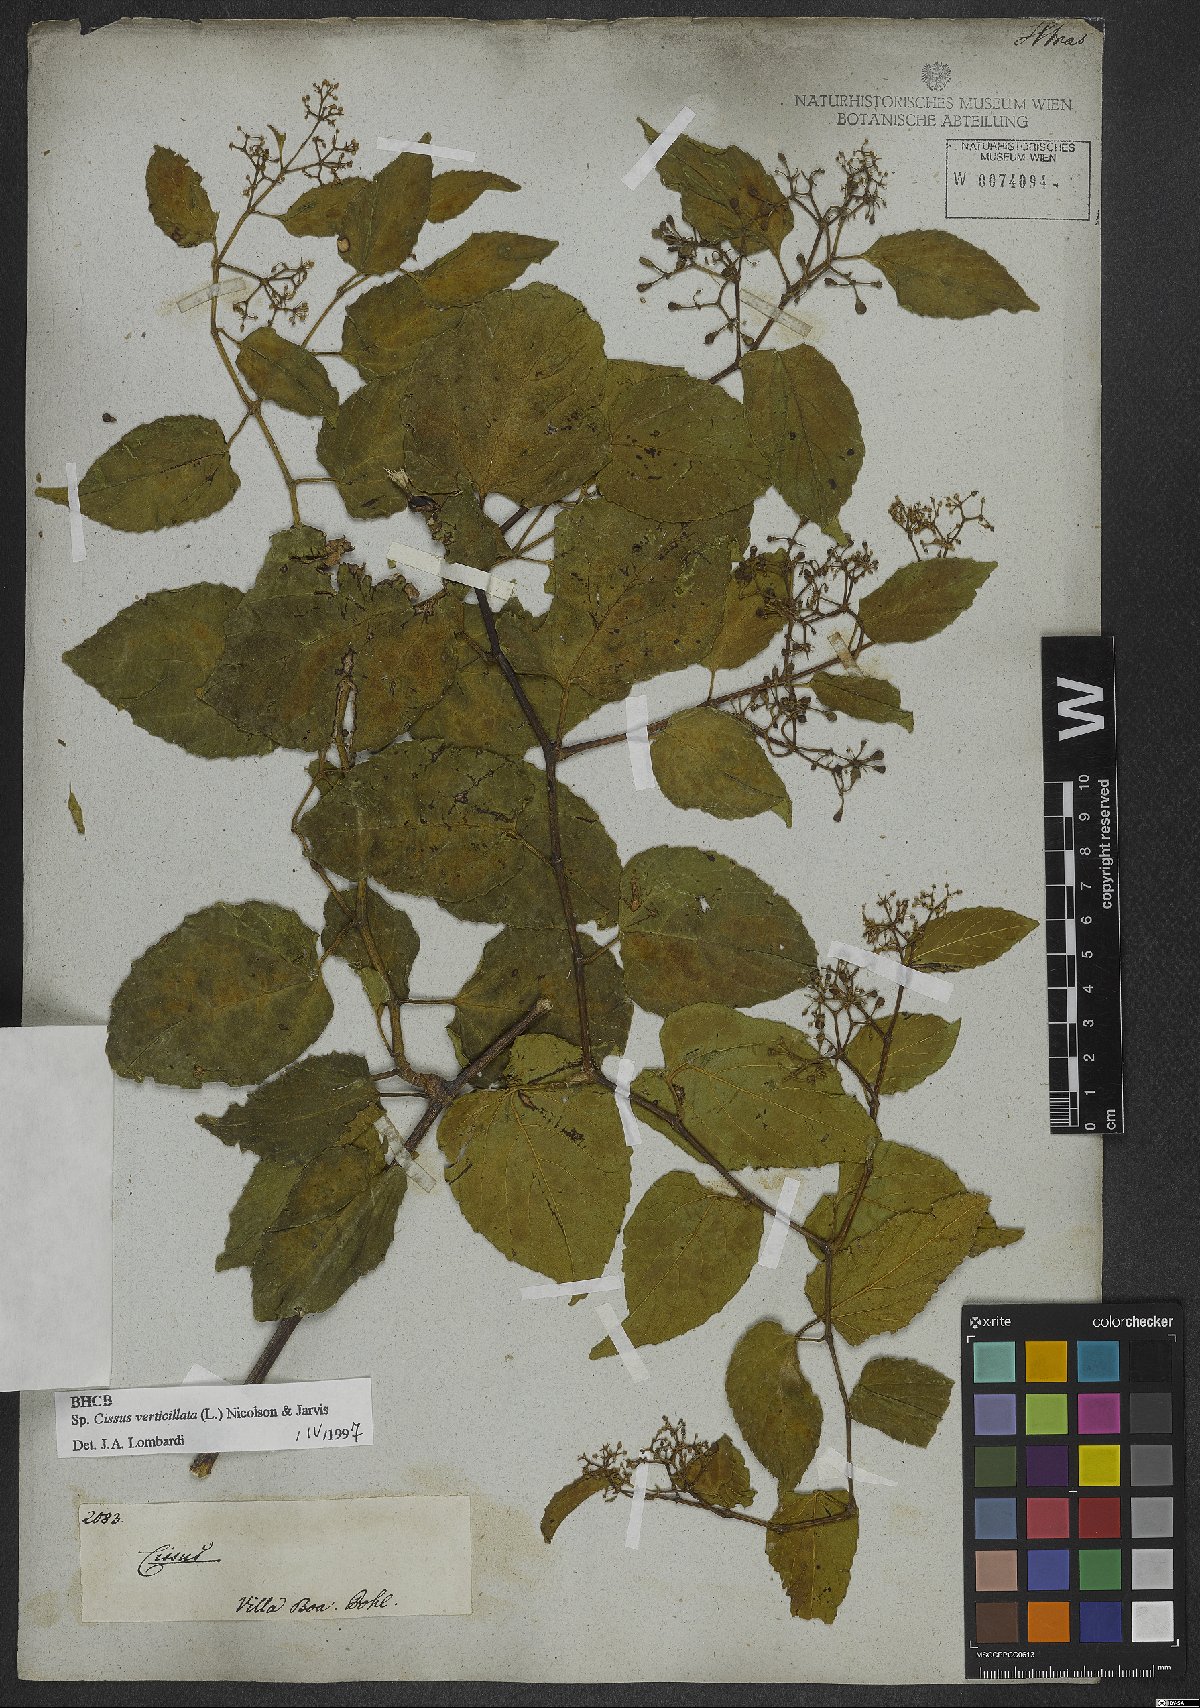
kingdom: Plantae
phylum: Tracheophyta
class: Magnoliopsida
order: Vitales
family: Vitaceae
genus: Cissus
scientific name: Cissus verticillata
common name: Princess vine
